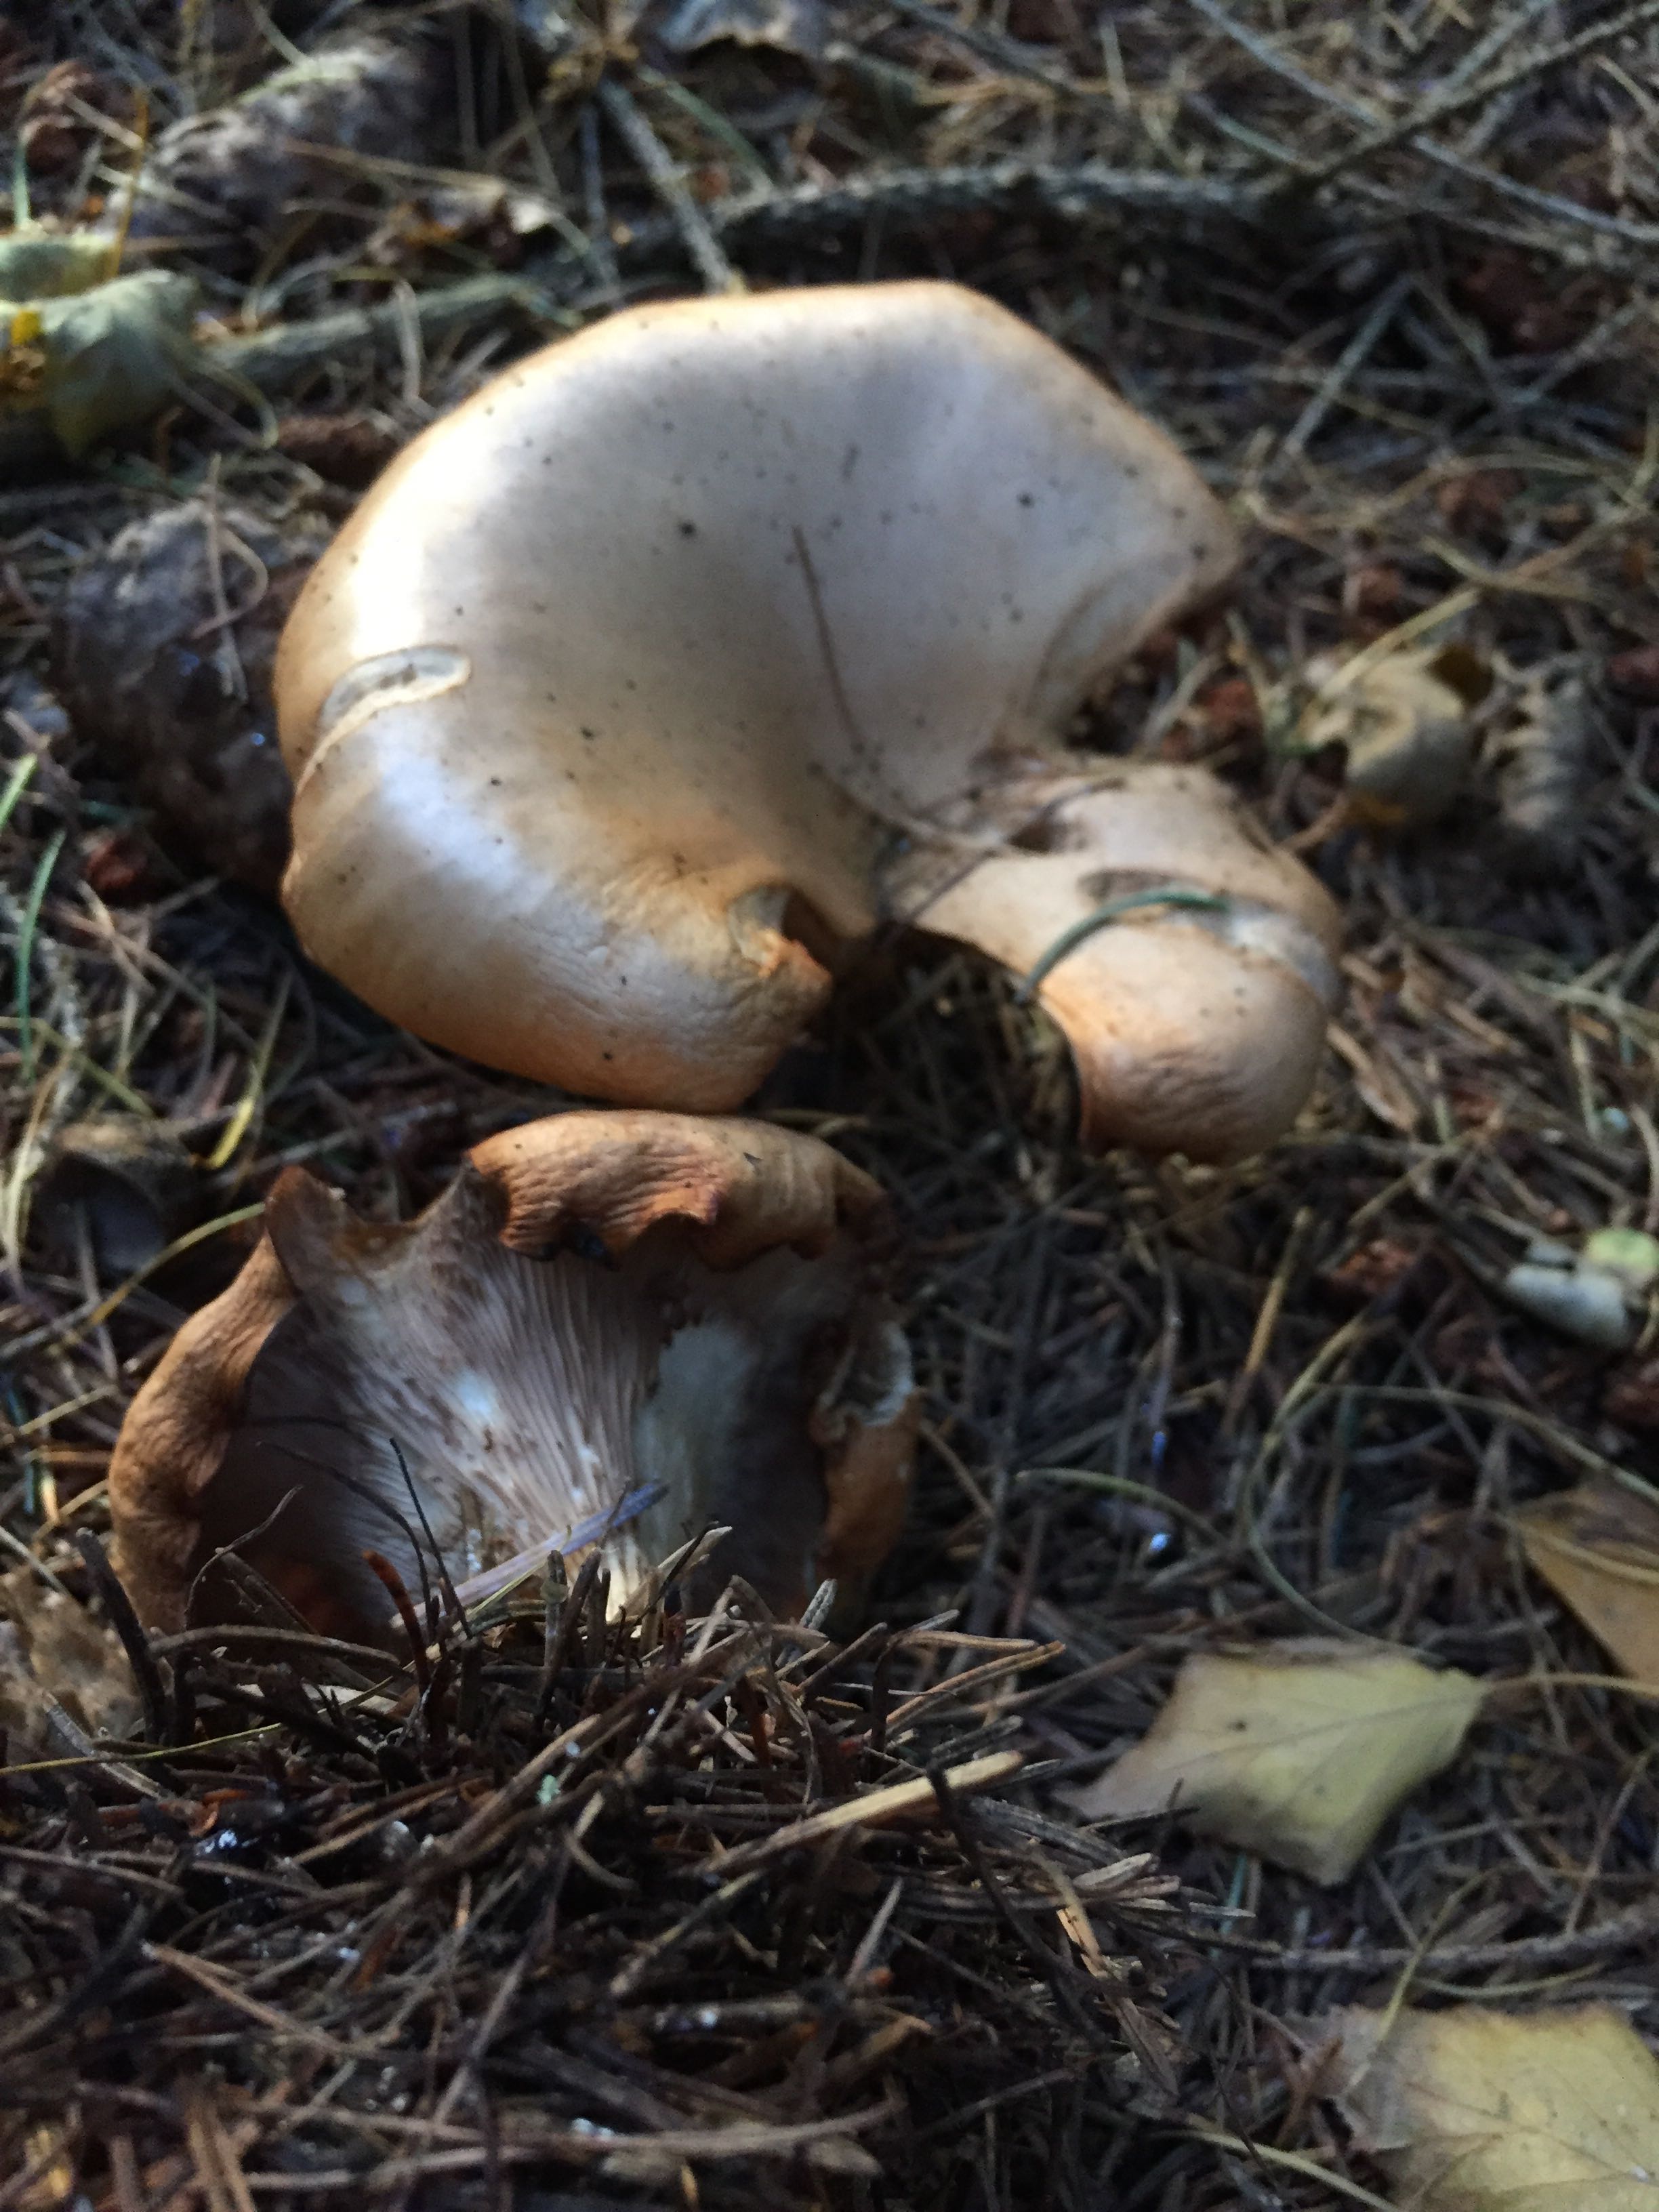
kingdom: Fungi
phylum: Basidiomycota
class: Agaricomycetes
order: Agaricales
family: Tricholomataceae
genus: Paralepista
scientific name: Paralepista
